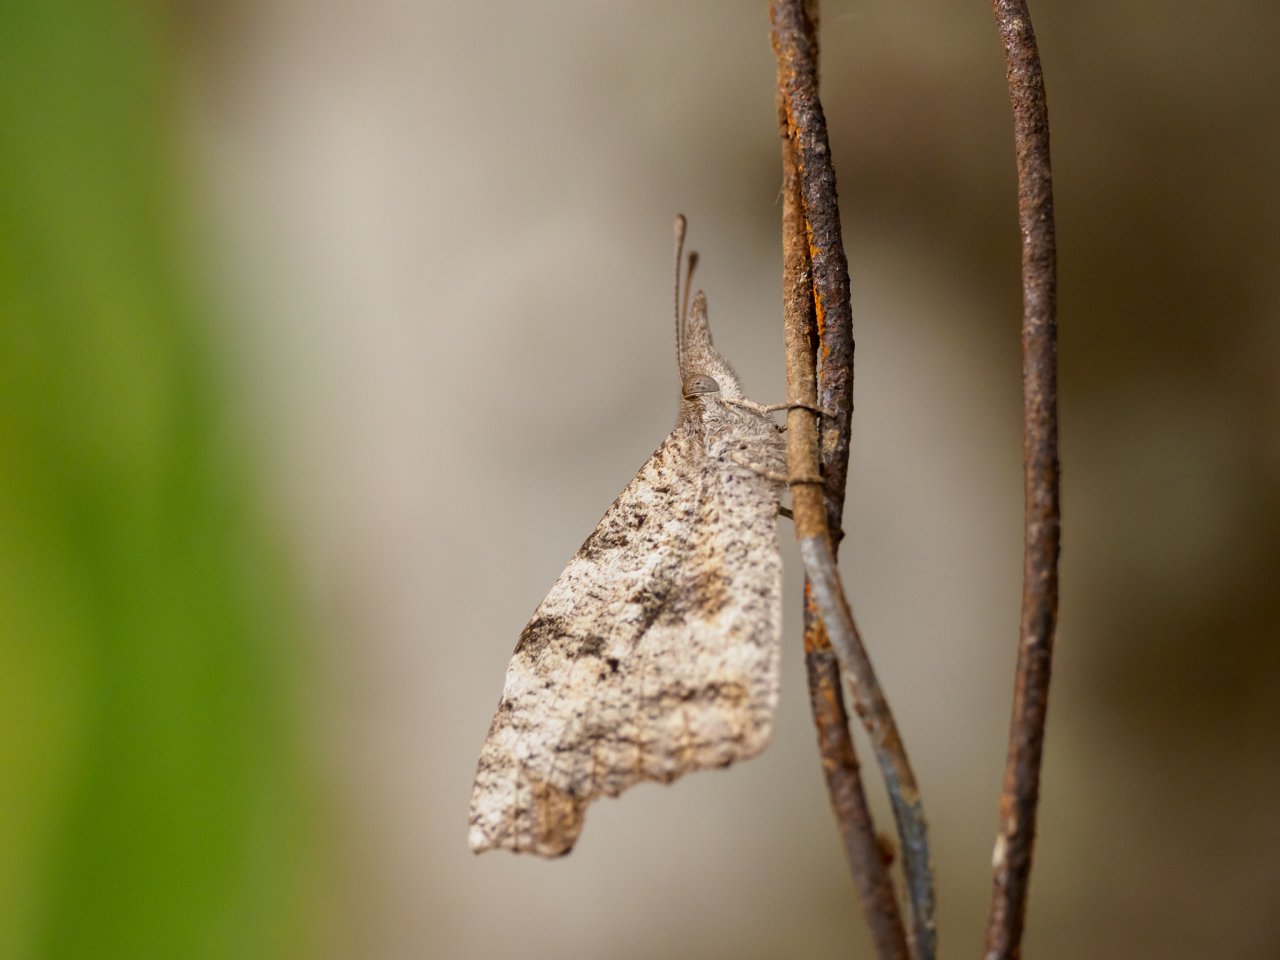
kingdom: Animalia
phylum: Arthropoda
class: Insecta
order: Lepidoptera
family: Nymphalidae
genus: Libytheana
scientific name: Libytheana carinenta
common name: American Snout
